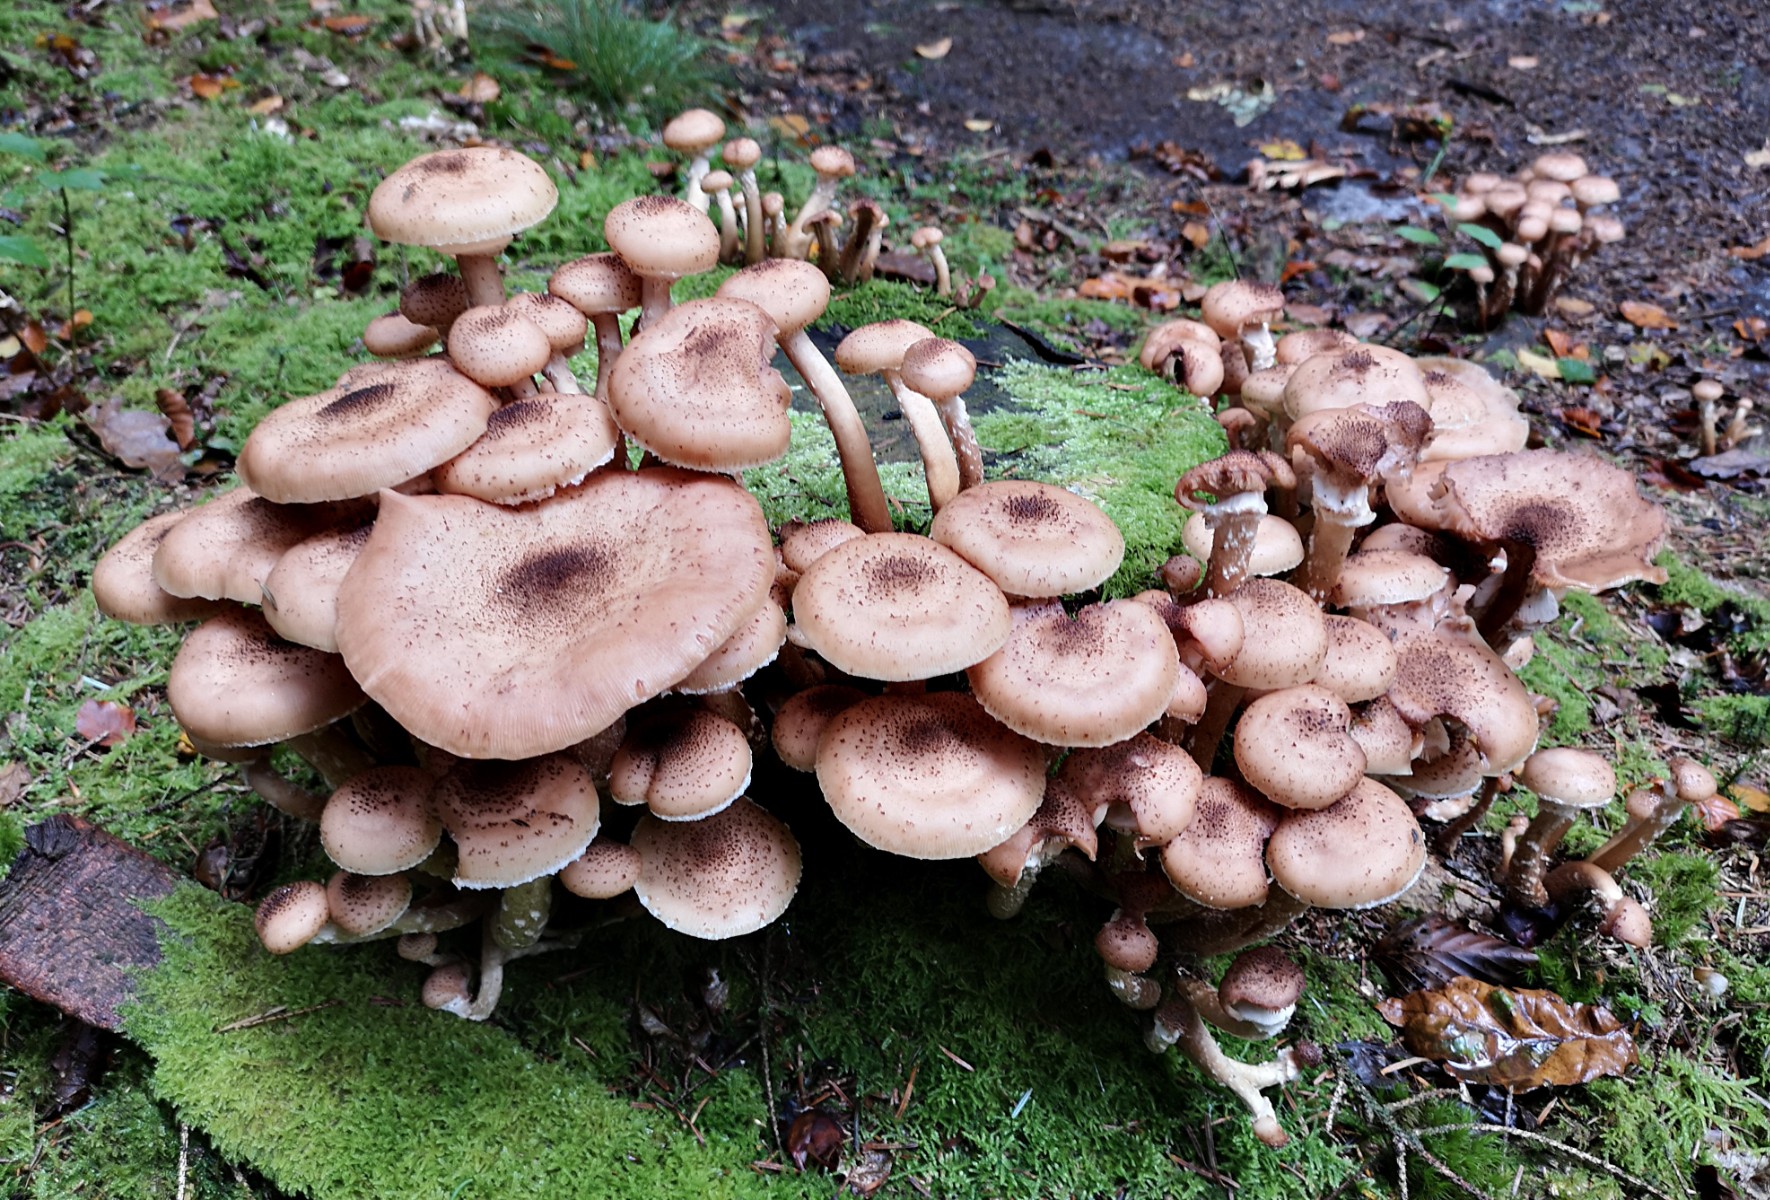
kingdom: Fungi
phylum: Basidiomycota
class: Agaricomycetes
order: Agaricales
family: Physalacriaceae
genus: Armillaria
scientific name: Armillaria ostoyae
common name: mørk honningsvamp
